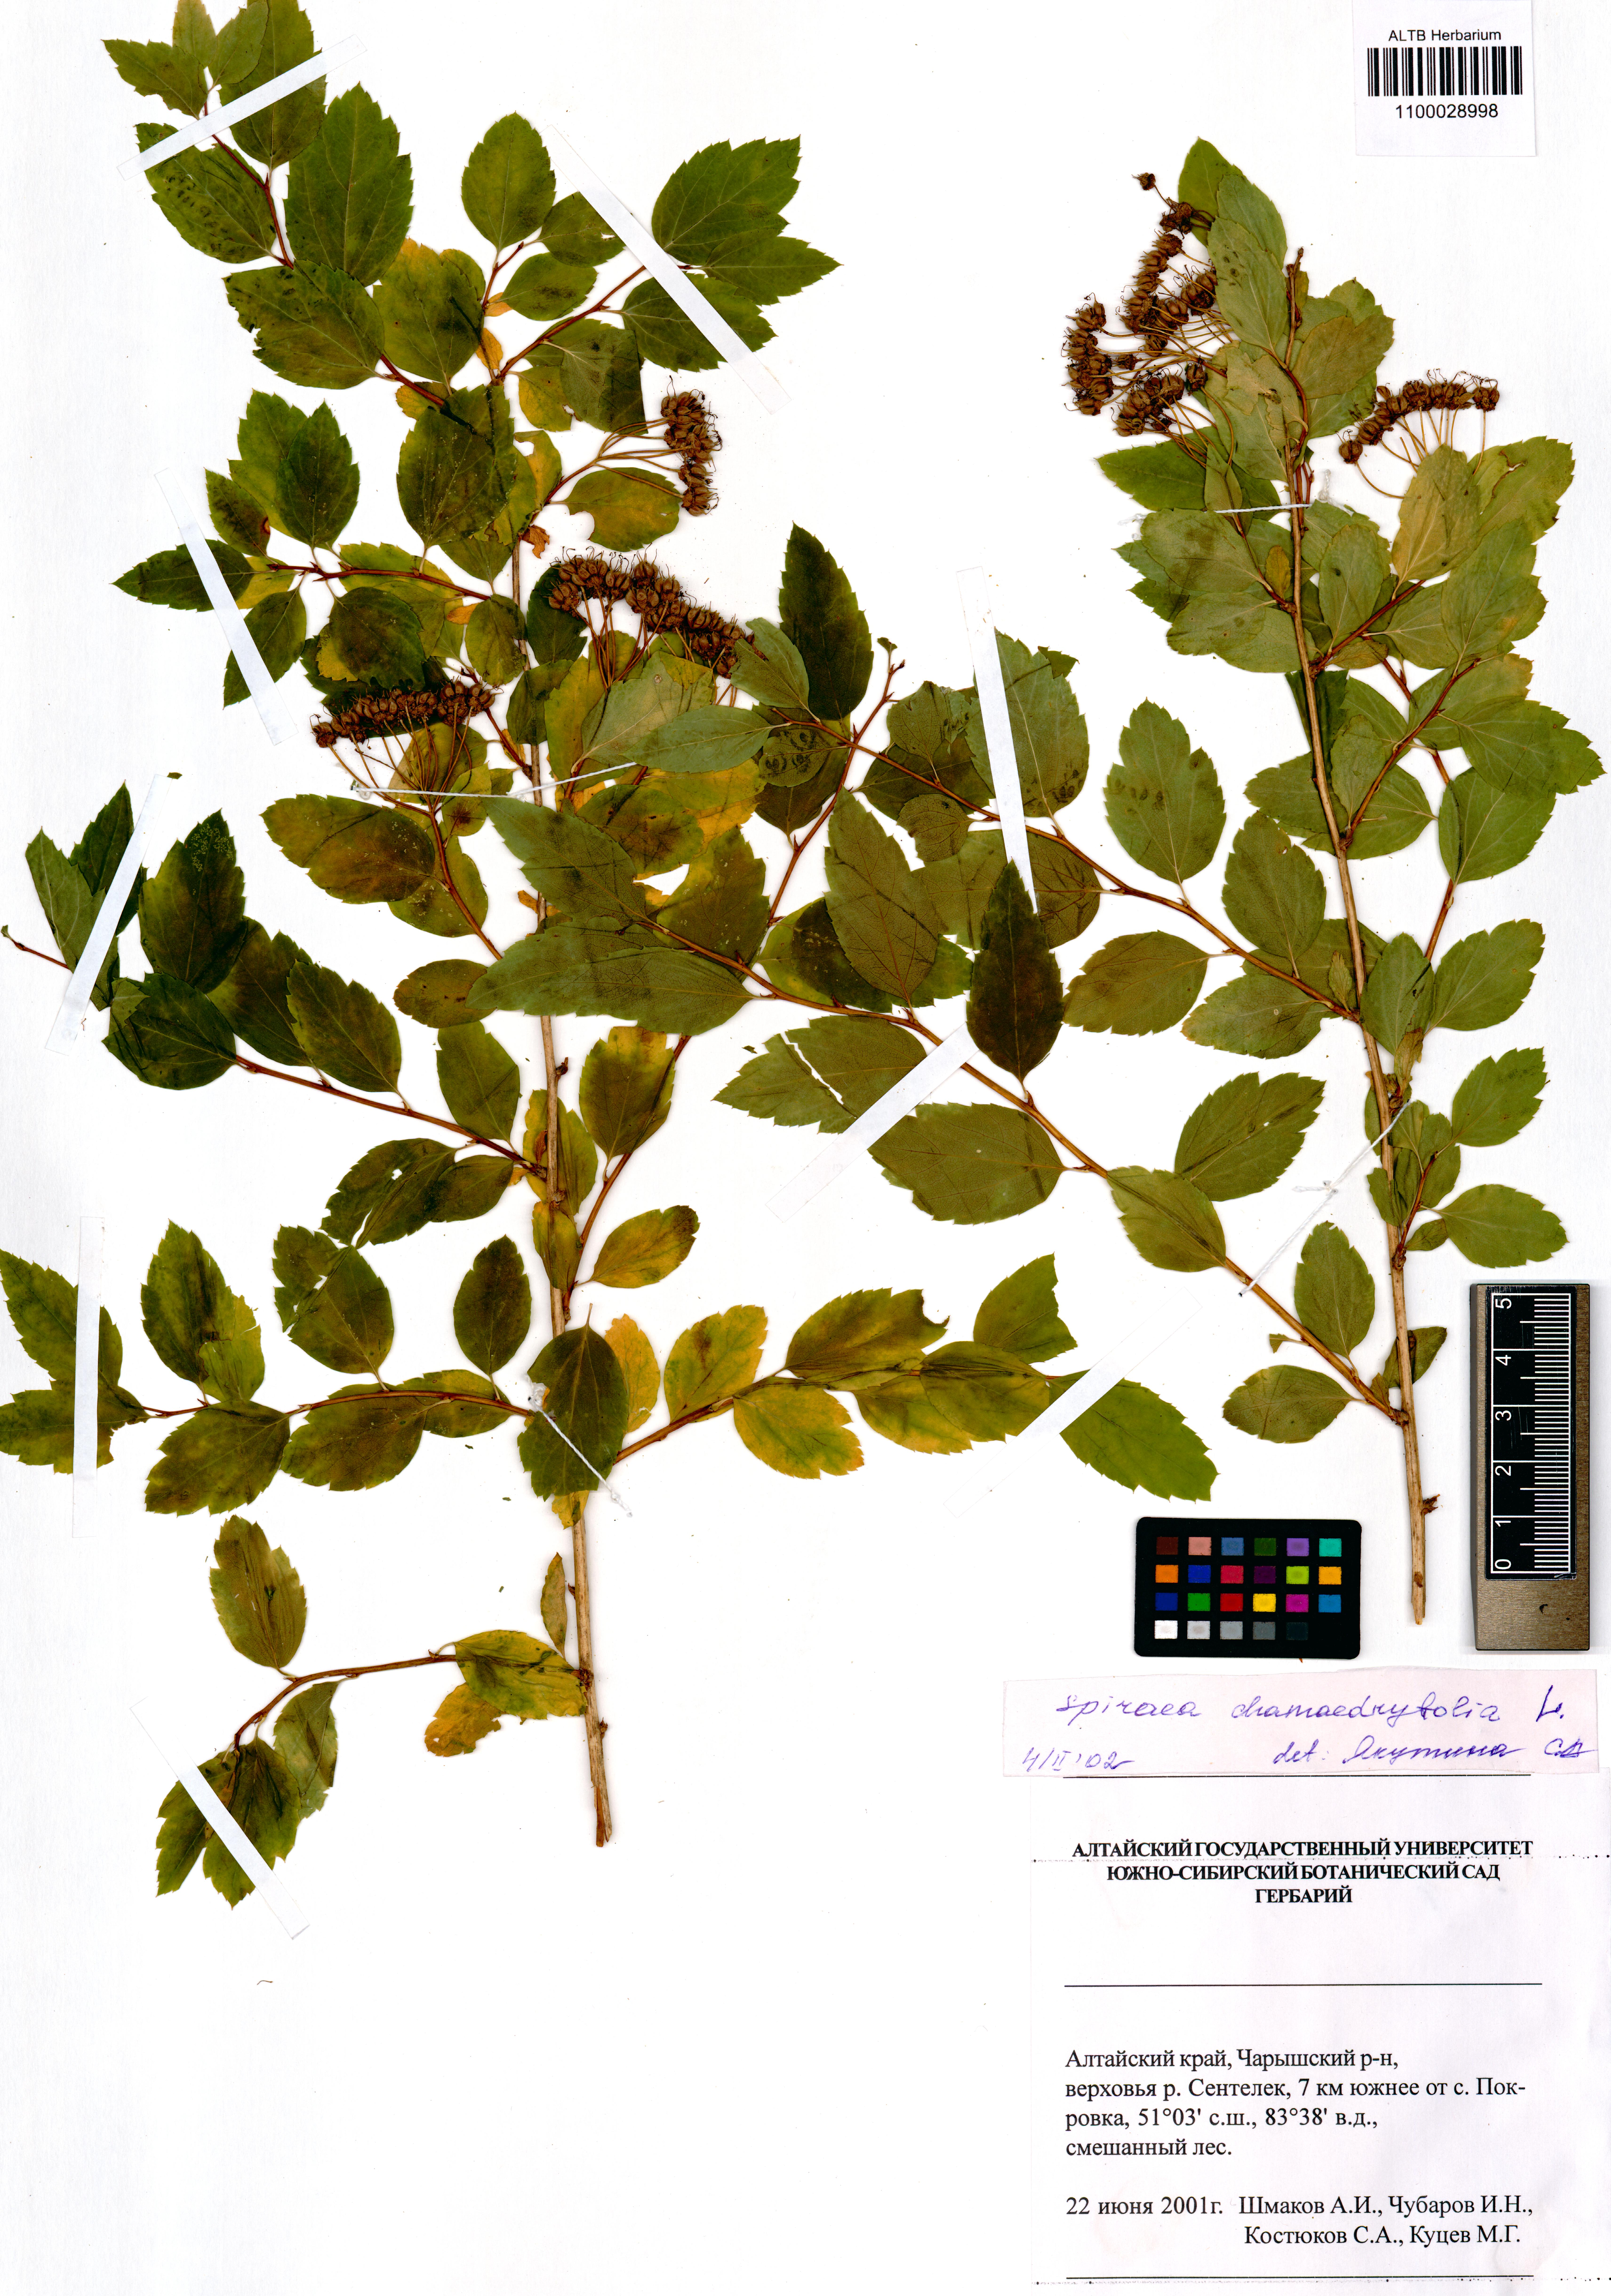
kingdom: Plantae
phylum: Tracheophyta
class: Magnoliopsida
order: Rosales
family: Rosaceae
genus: Spiraea
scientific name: Spiraea chamaedryfolia
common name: Elm-leaved spiraea
